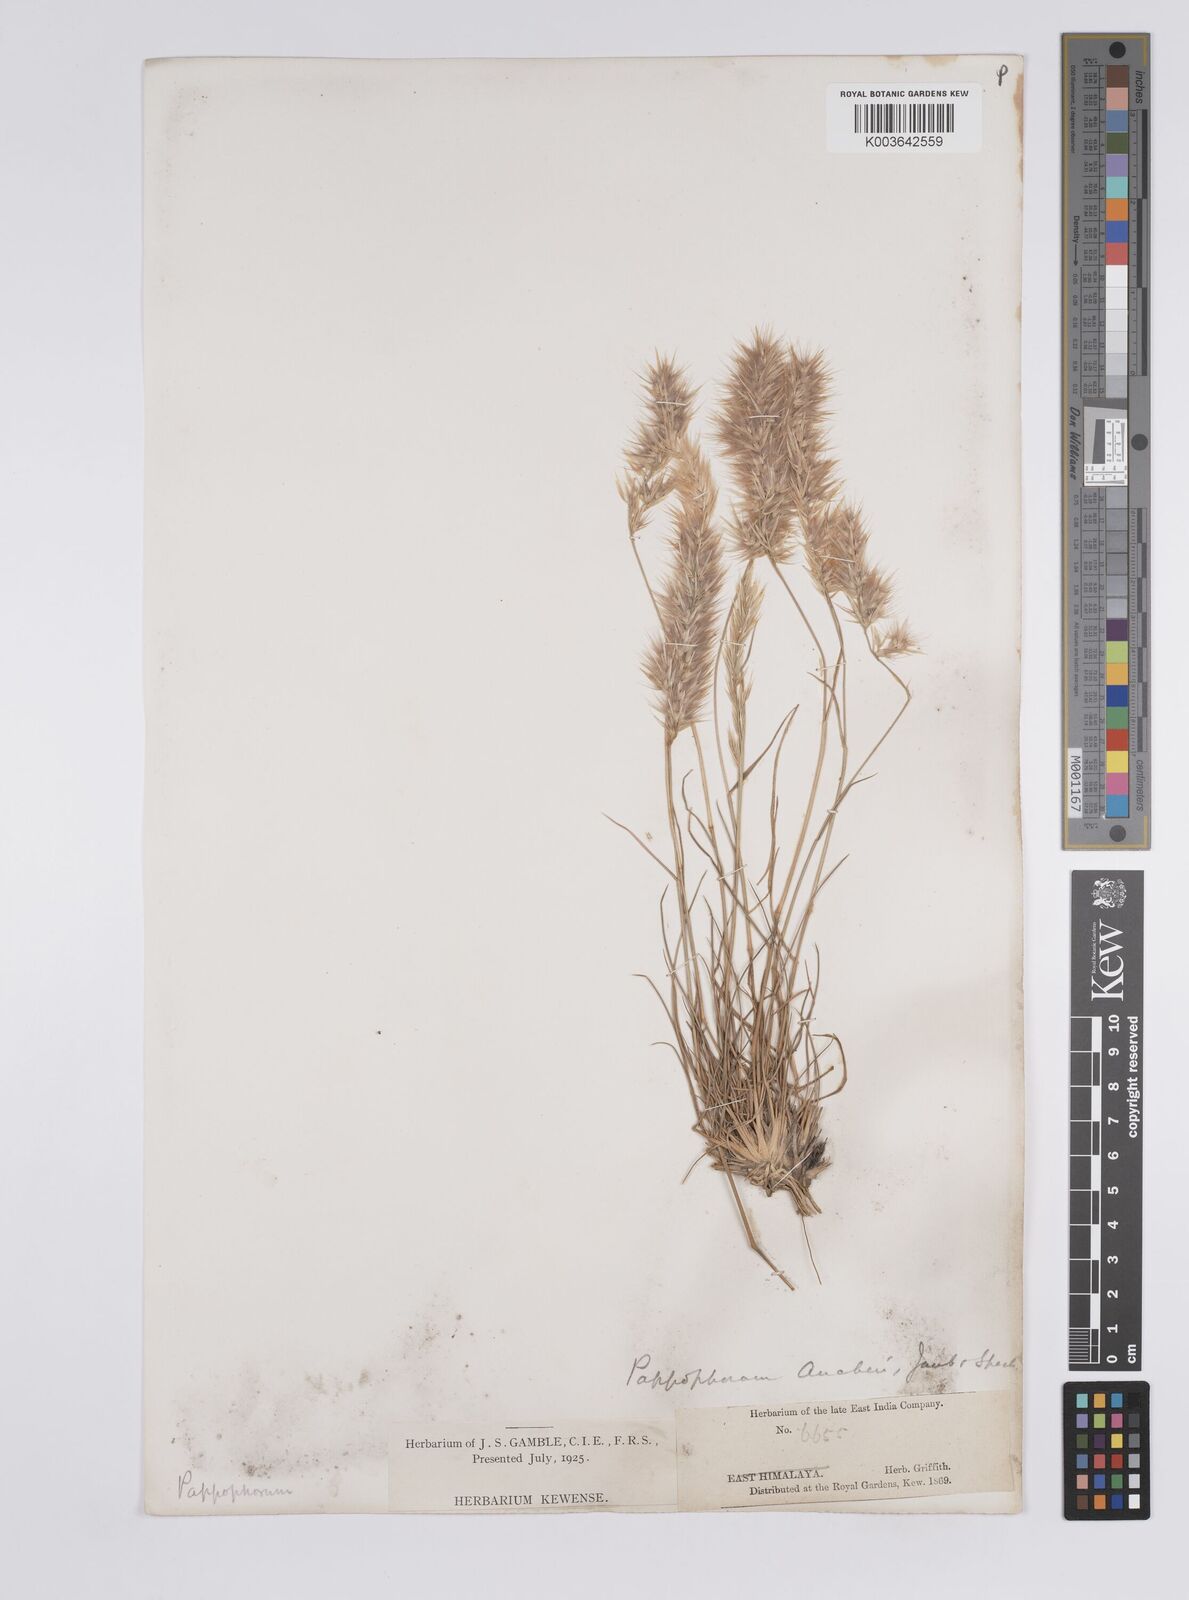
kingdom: Plantae
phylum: Tracheophyta
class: Liliopsida
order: Poales
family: Poaceae
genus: Enneapogon
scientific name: Enneapogon persicus
